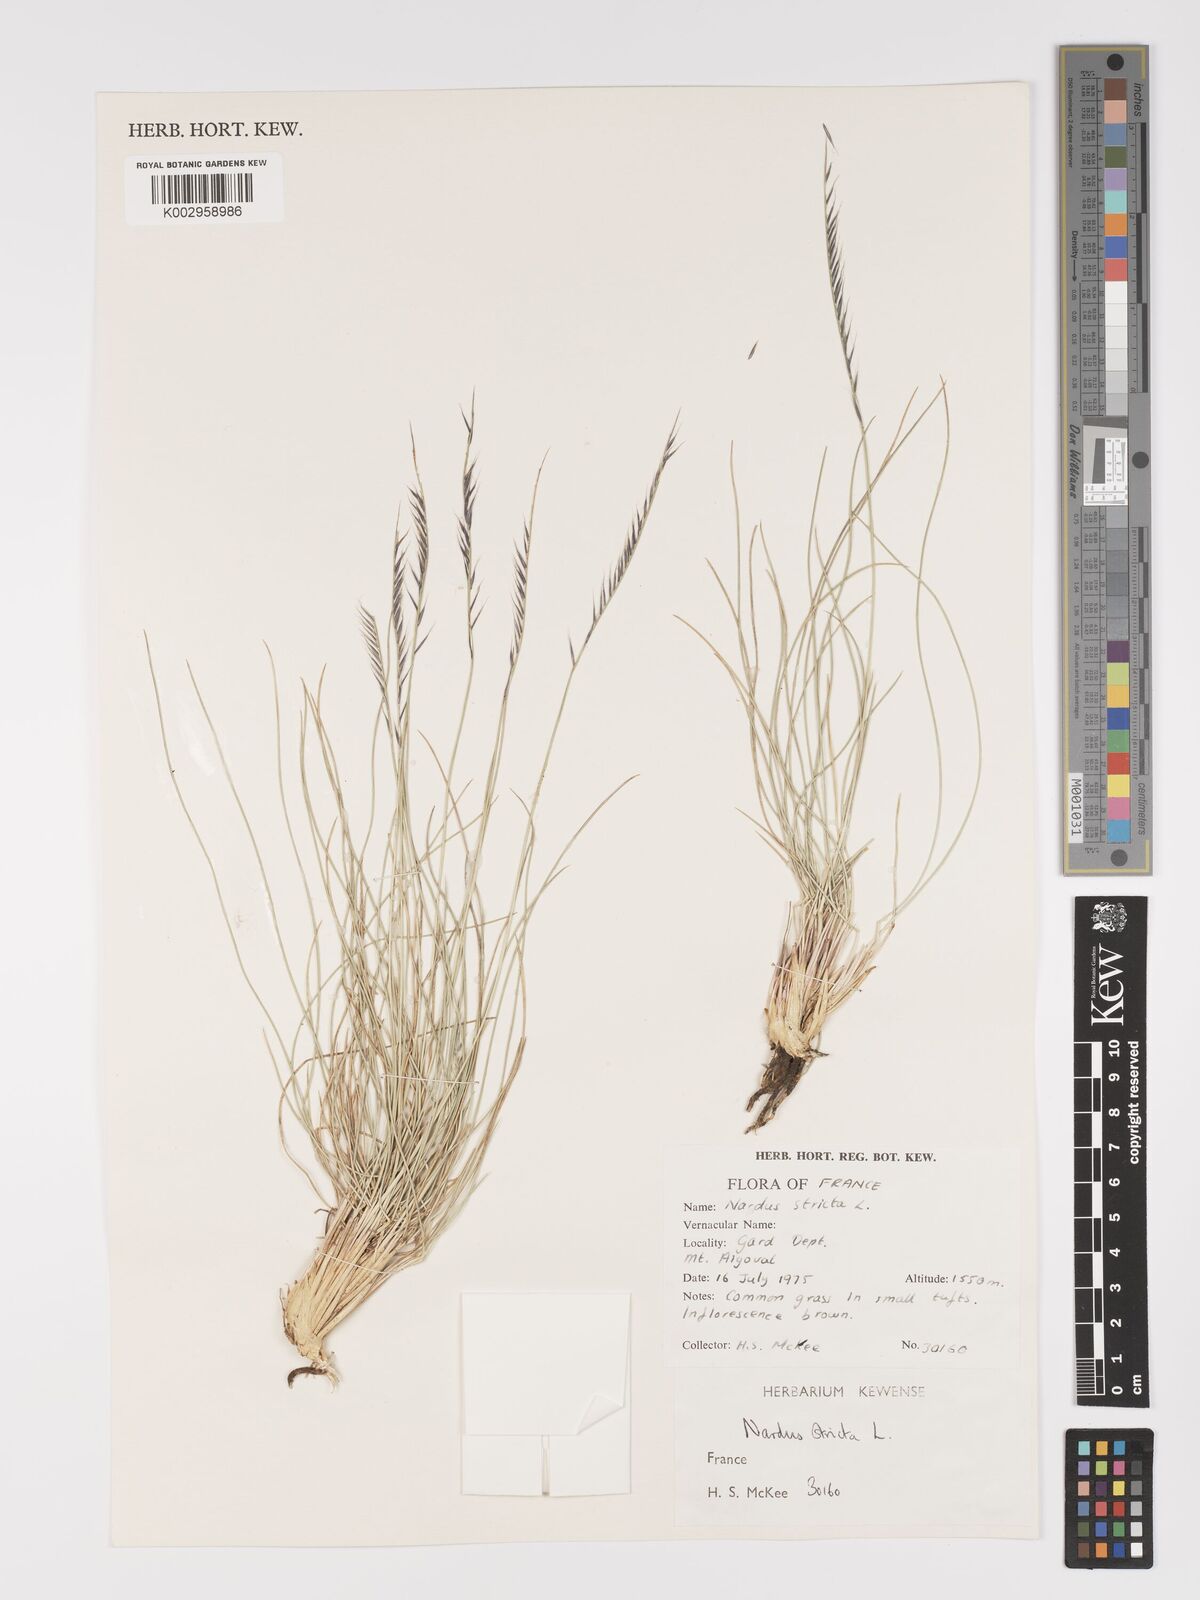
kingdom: Plantae
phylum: Tracheophyta
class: Liliopsida
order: Poales
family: Poaceae
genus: Nardus
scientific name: Nardus stricta
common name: Mat-grass
